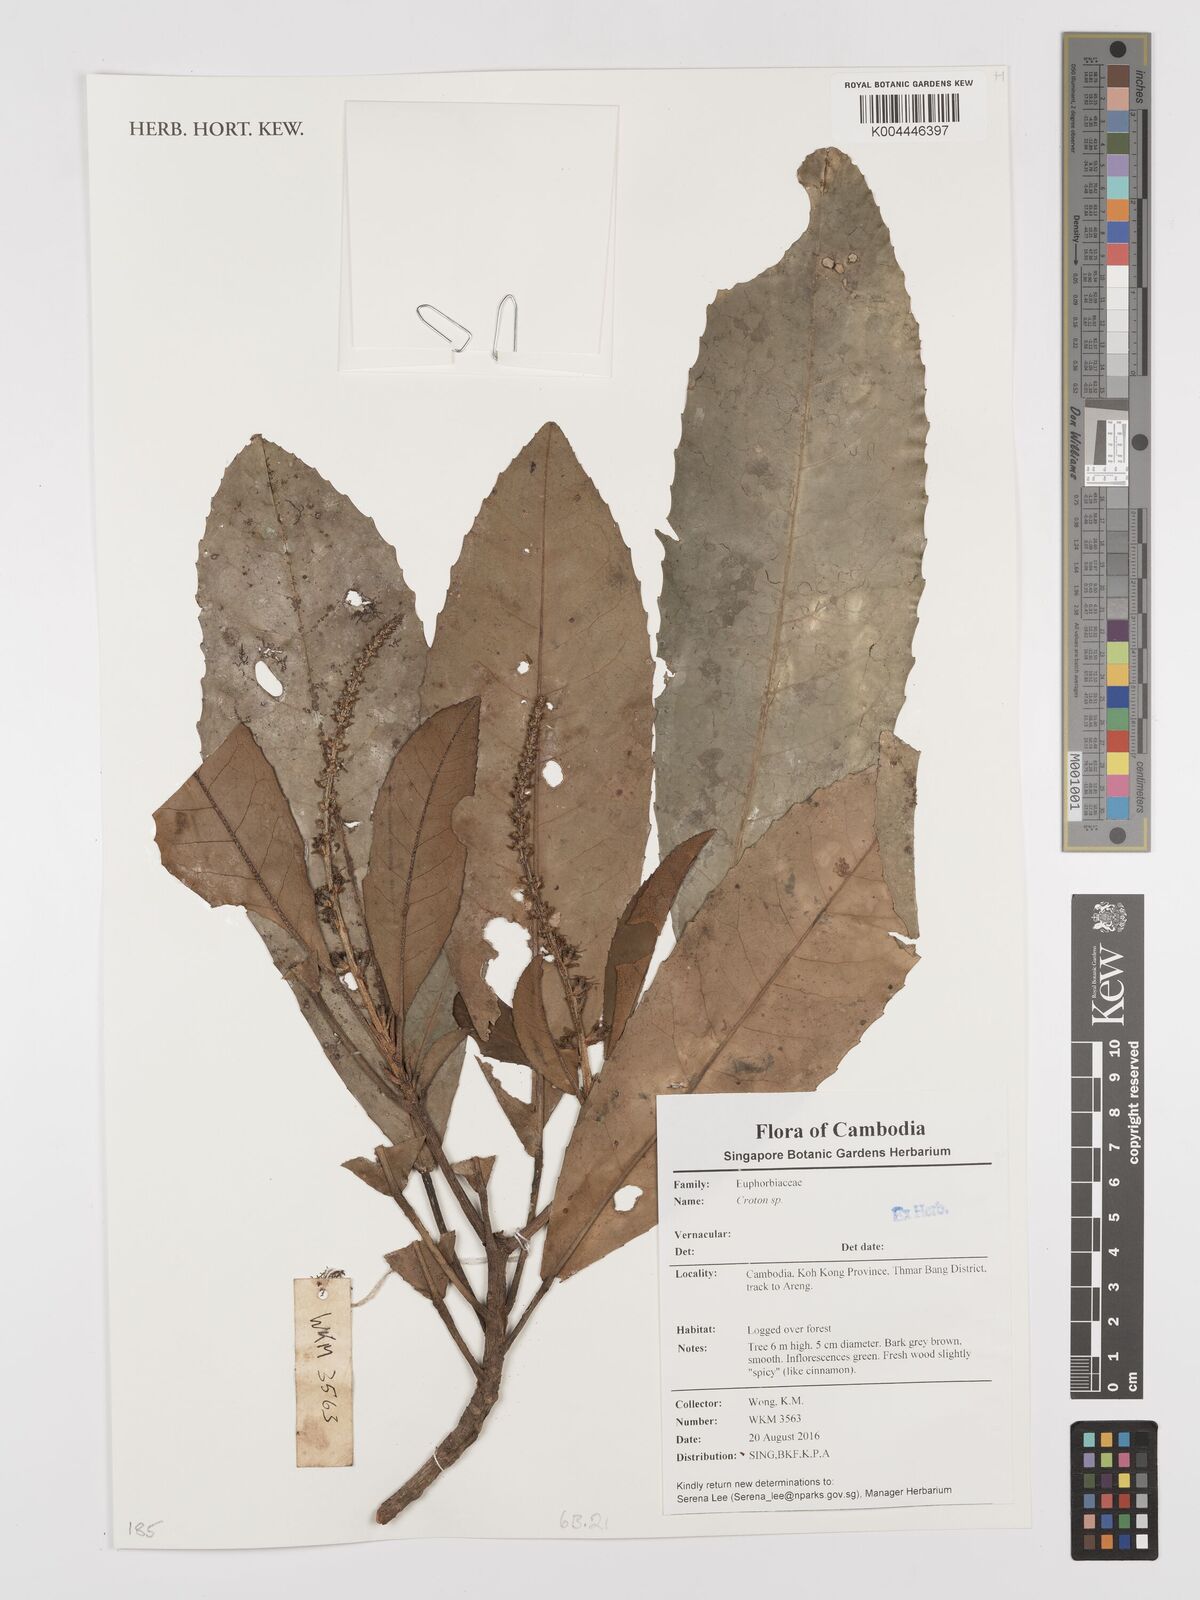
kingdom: Plantae
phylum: Tracheophyta
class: Magnoliopsida
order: Malpighiales
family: Euphorbiaceae
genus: Croton
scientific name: Croton
